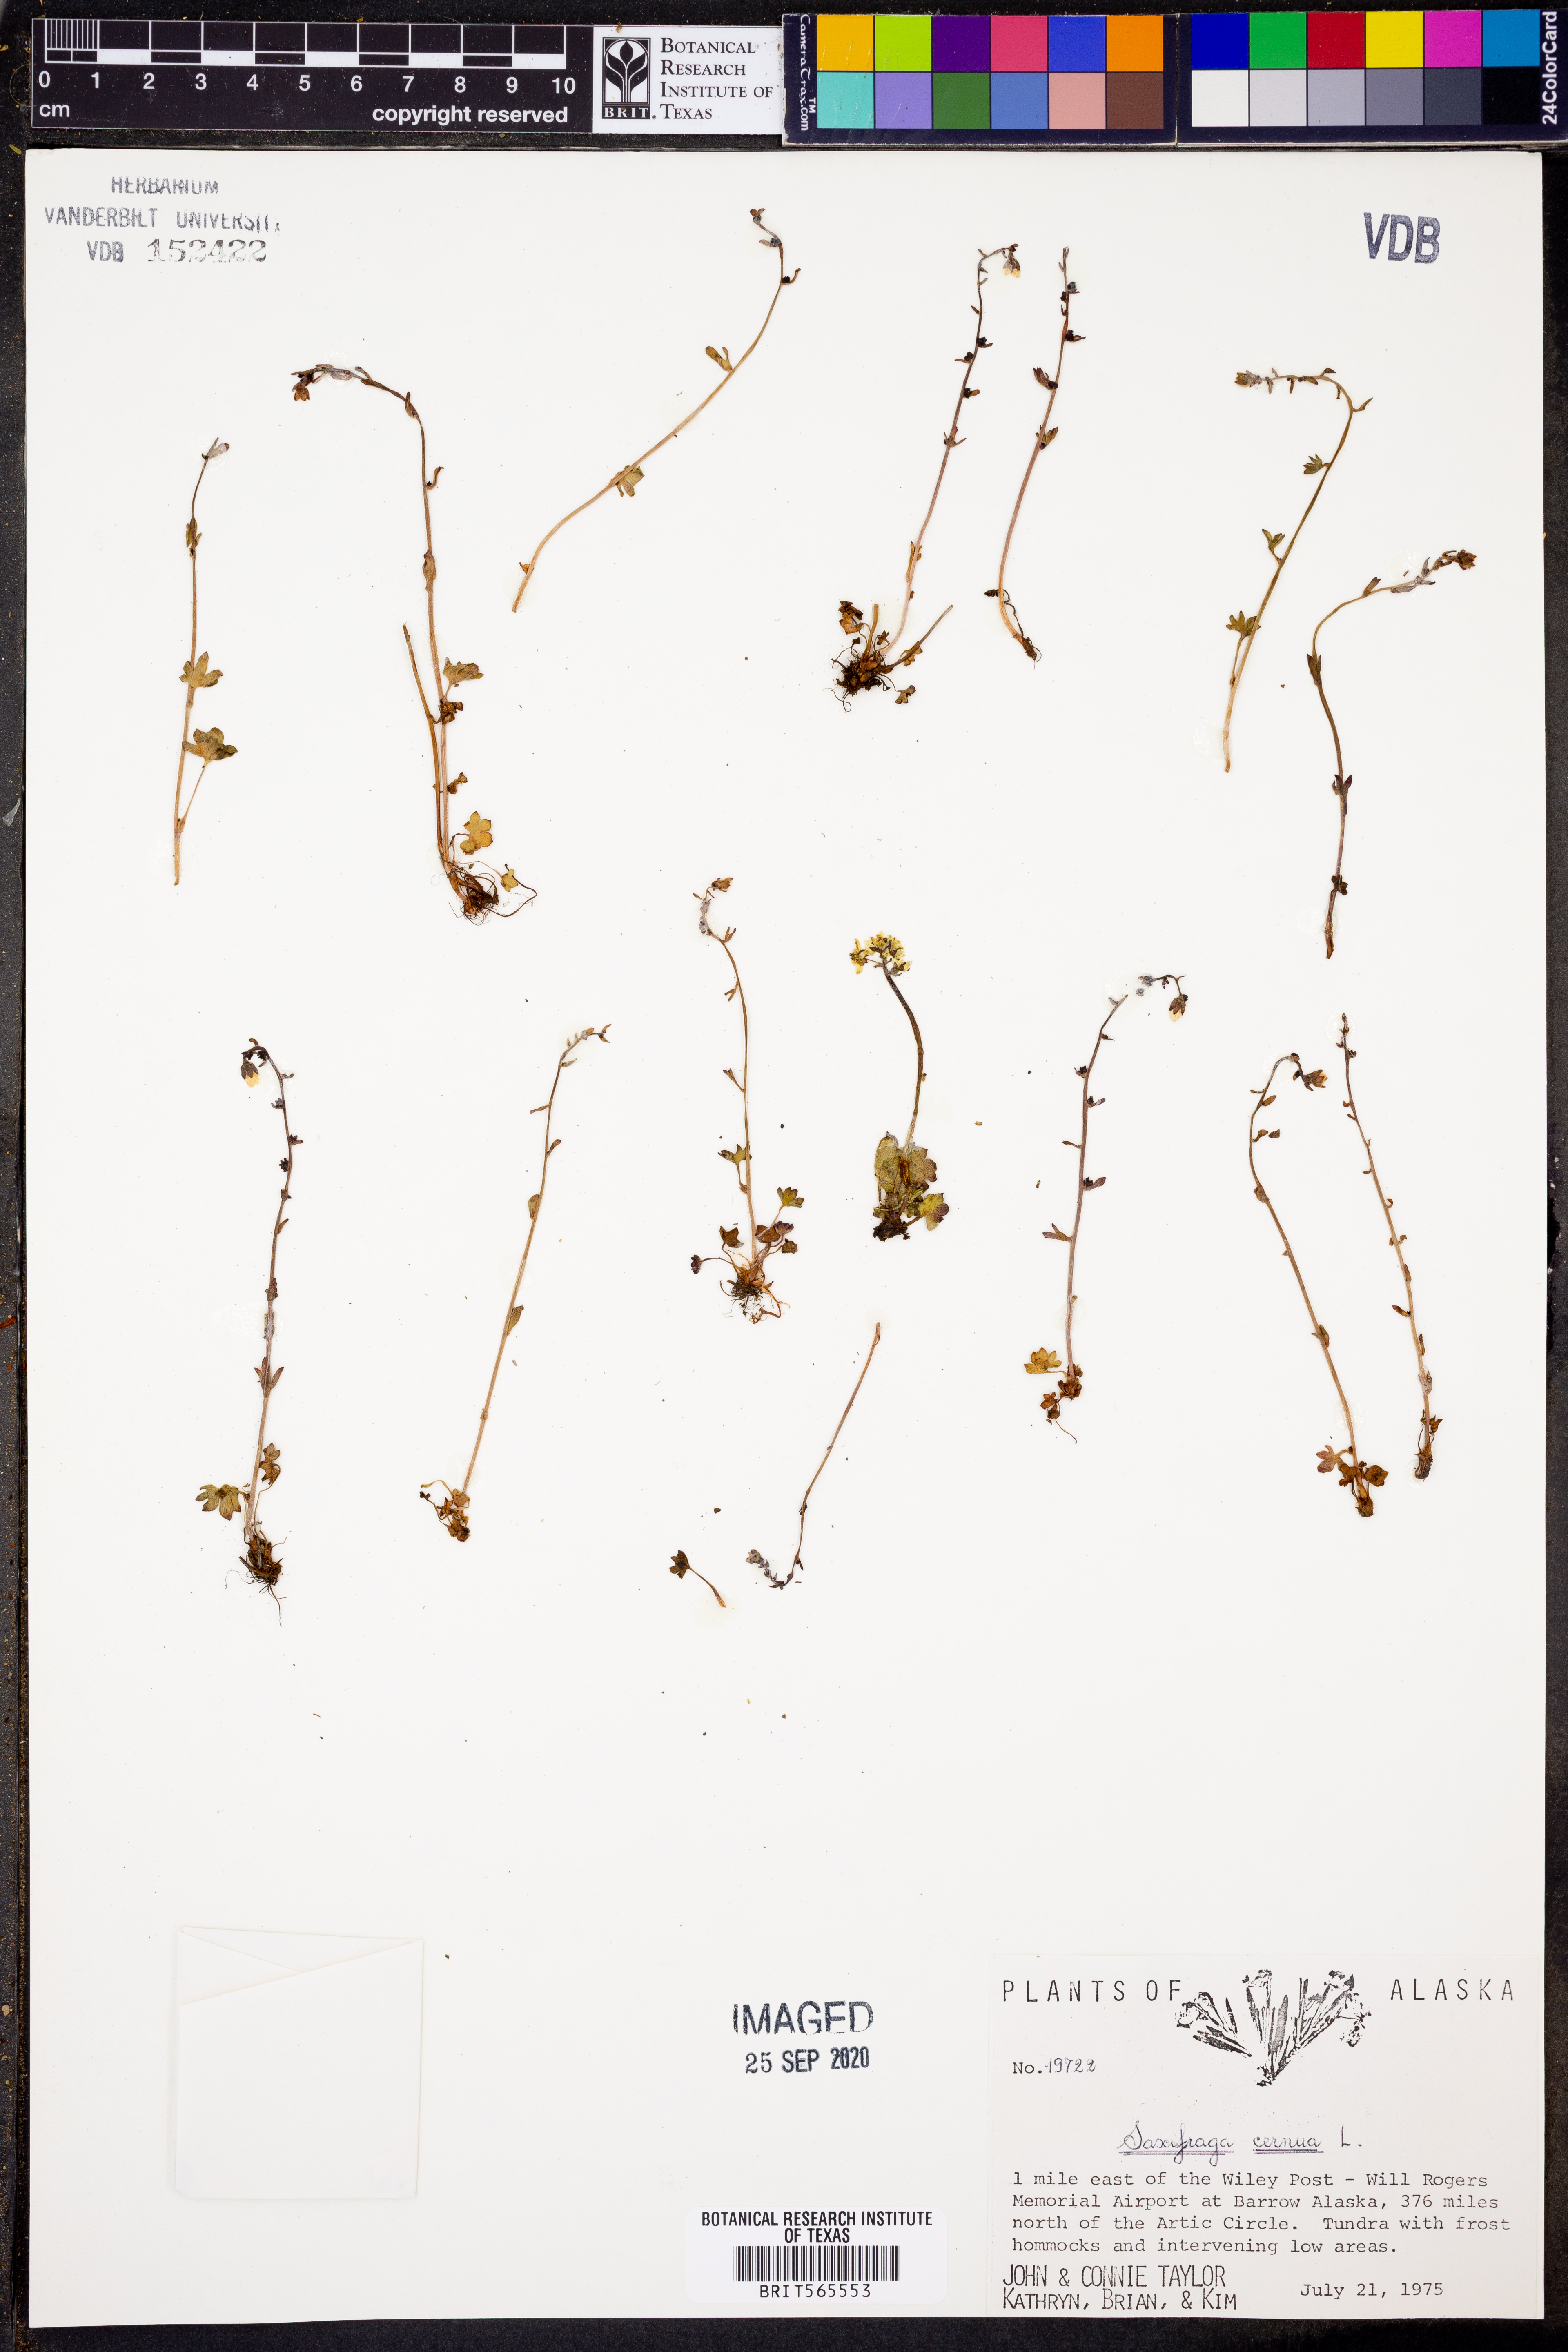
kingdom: Plantae
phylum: Tracheophyta
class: Magnoliopsida
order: Saxifragales
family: Saxifragaceae
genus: Saxifraga
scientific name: Saxifraga cernua
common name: Drooping saxifrage
